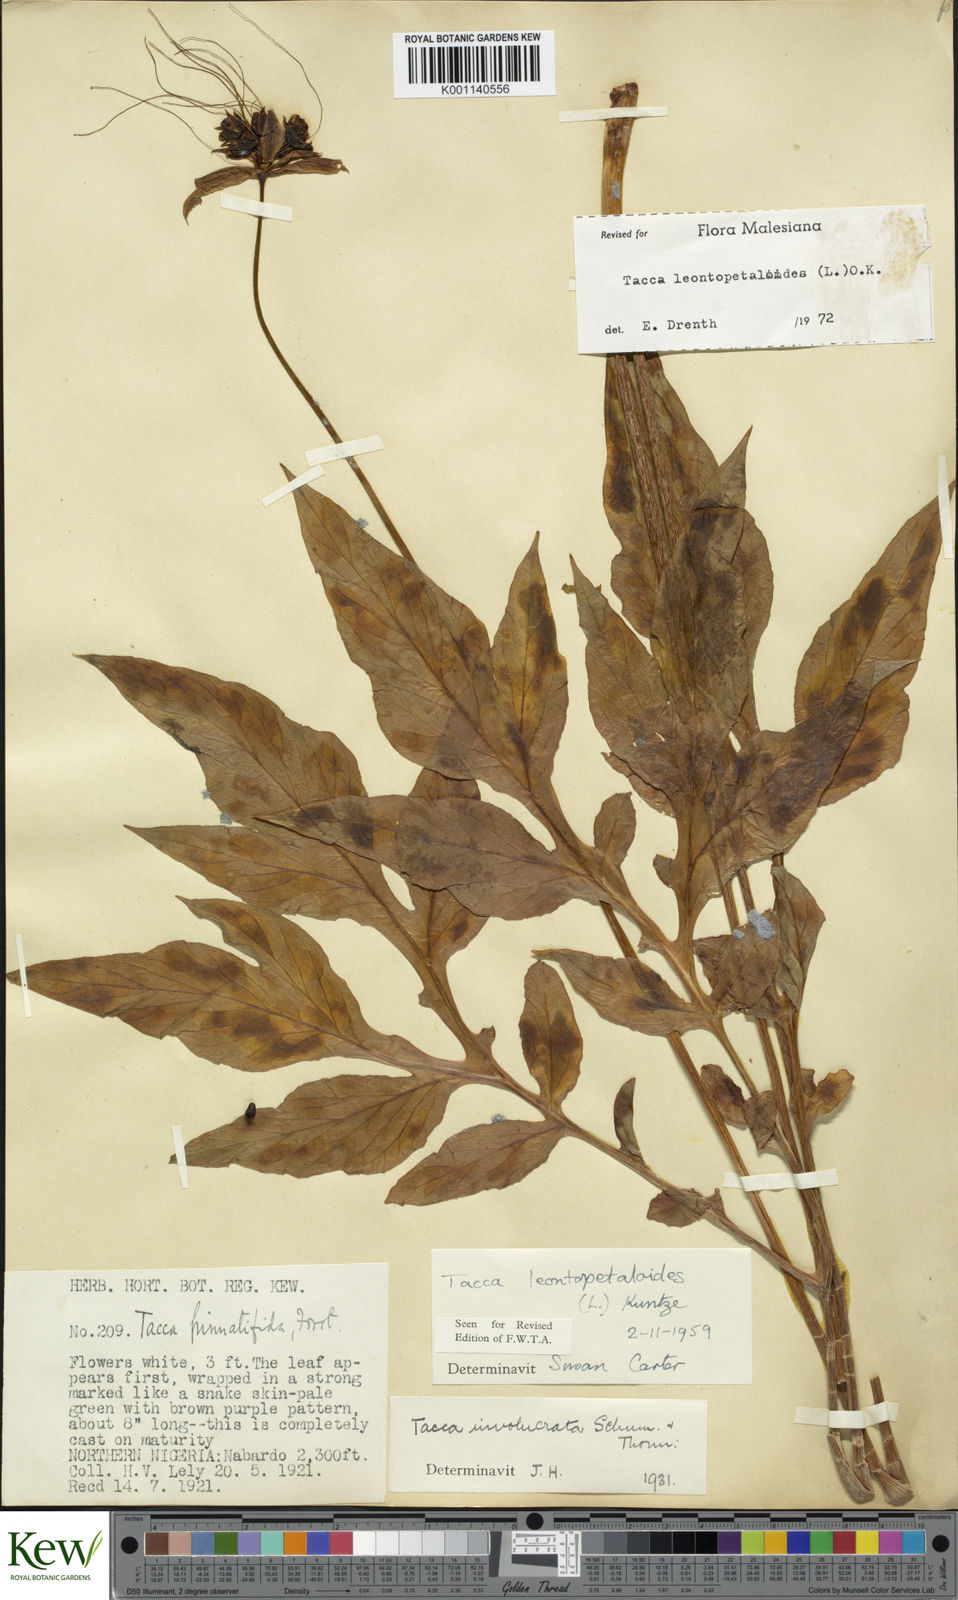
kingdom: Plantae
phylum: Tracheophyta
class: Liliopsida
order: Dioscoreales
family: Dioscoreaceae
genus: Tacca
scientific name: Tacca leontopetaloides
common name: Arrowroot
